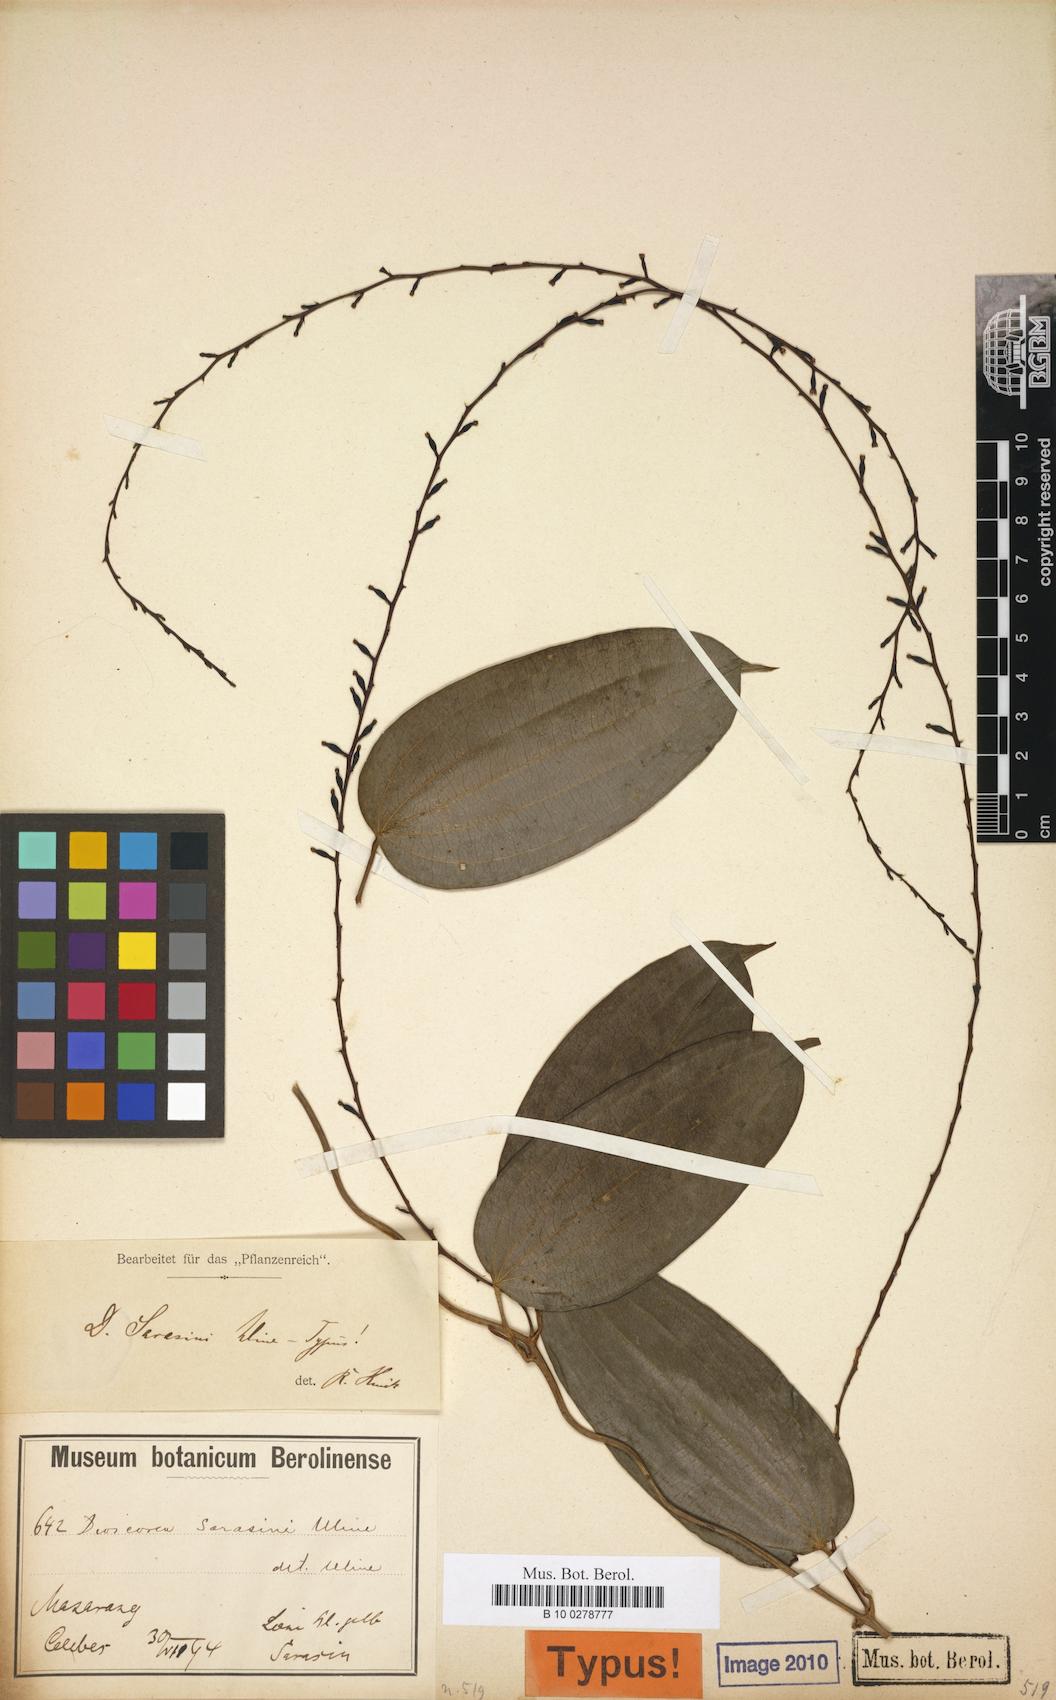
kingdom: Plantae
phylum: Tracheophyta
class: Liliopsida
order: Dioscoreales
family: Dioscoreaceae
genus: Dioscorea
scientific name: Dioscorea sarasinii
